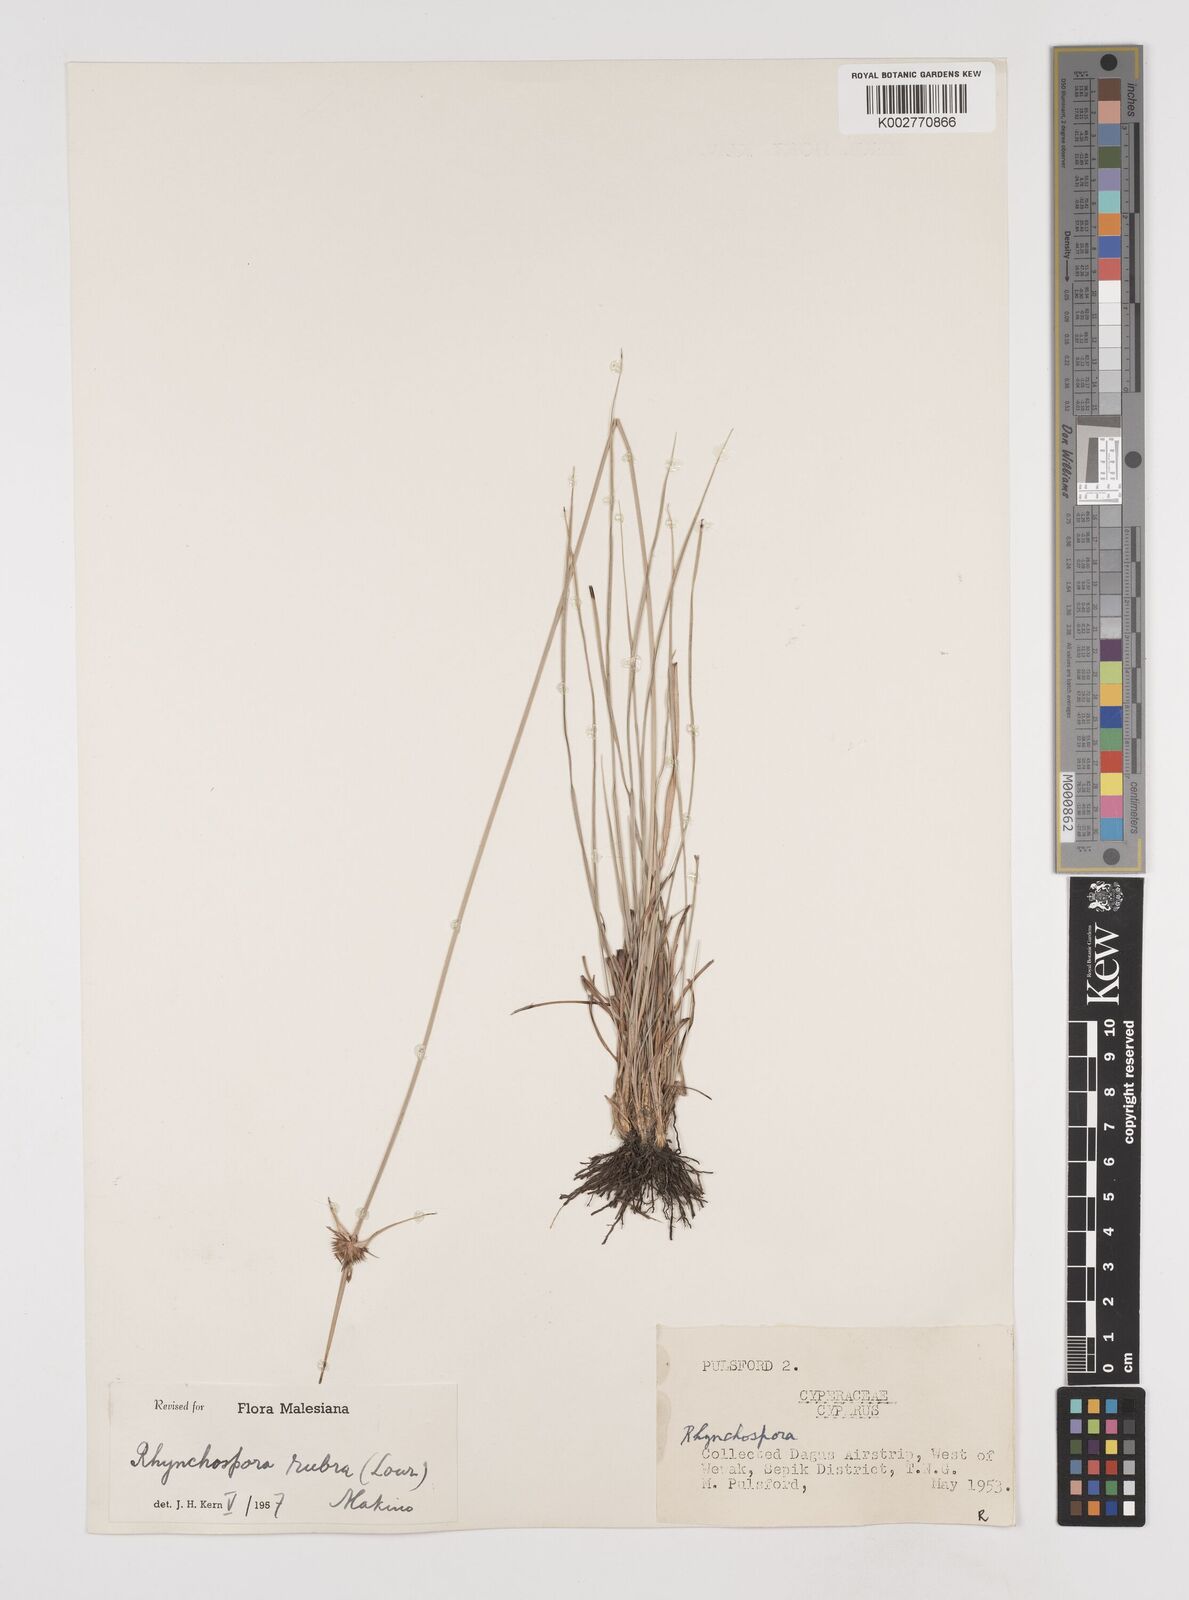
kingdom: Plantae
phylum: Tracheophyta
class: Liliopsida
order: Poales
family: Cyperaceae
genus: Rhynchospora
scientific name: Rhynchospora rubra
